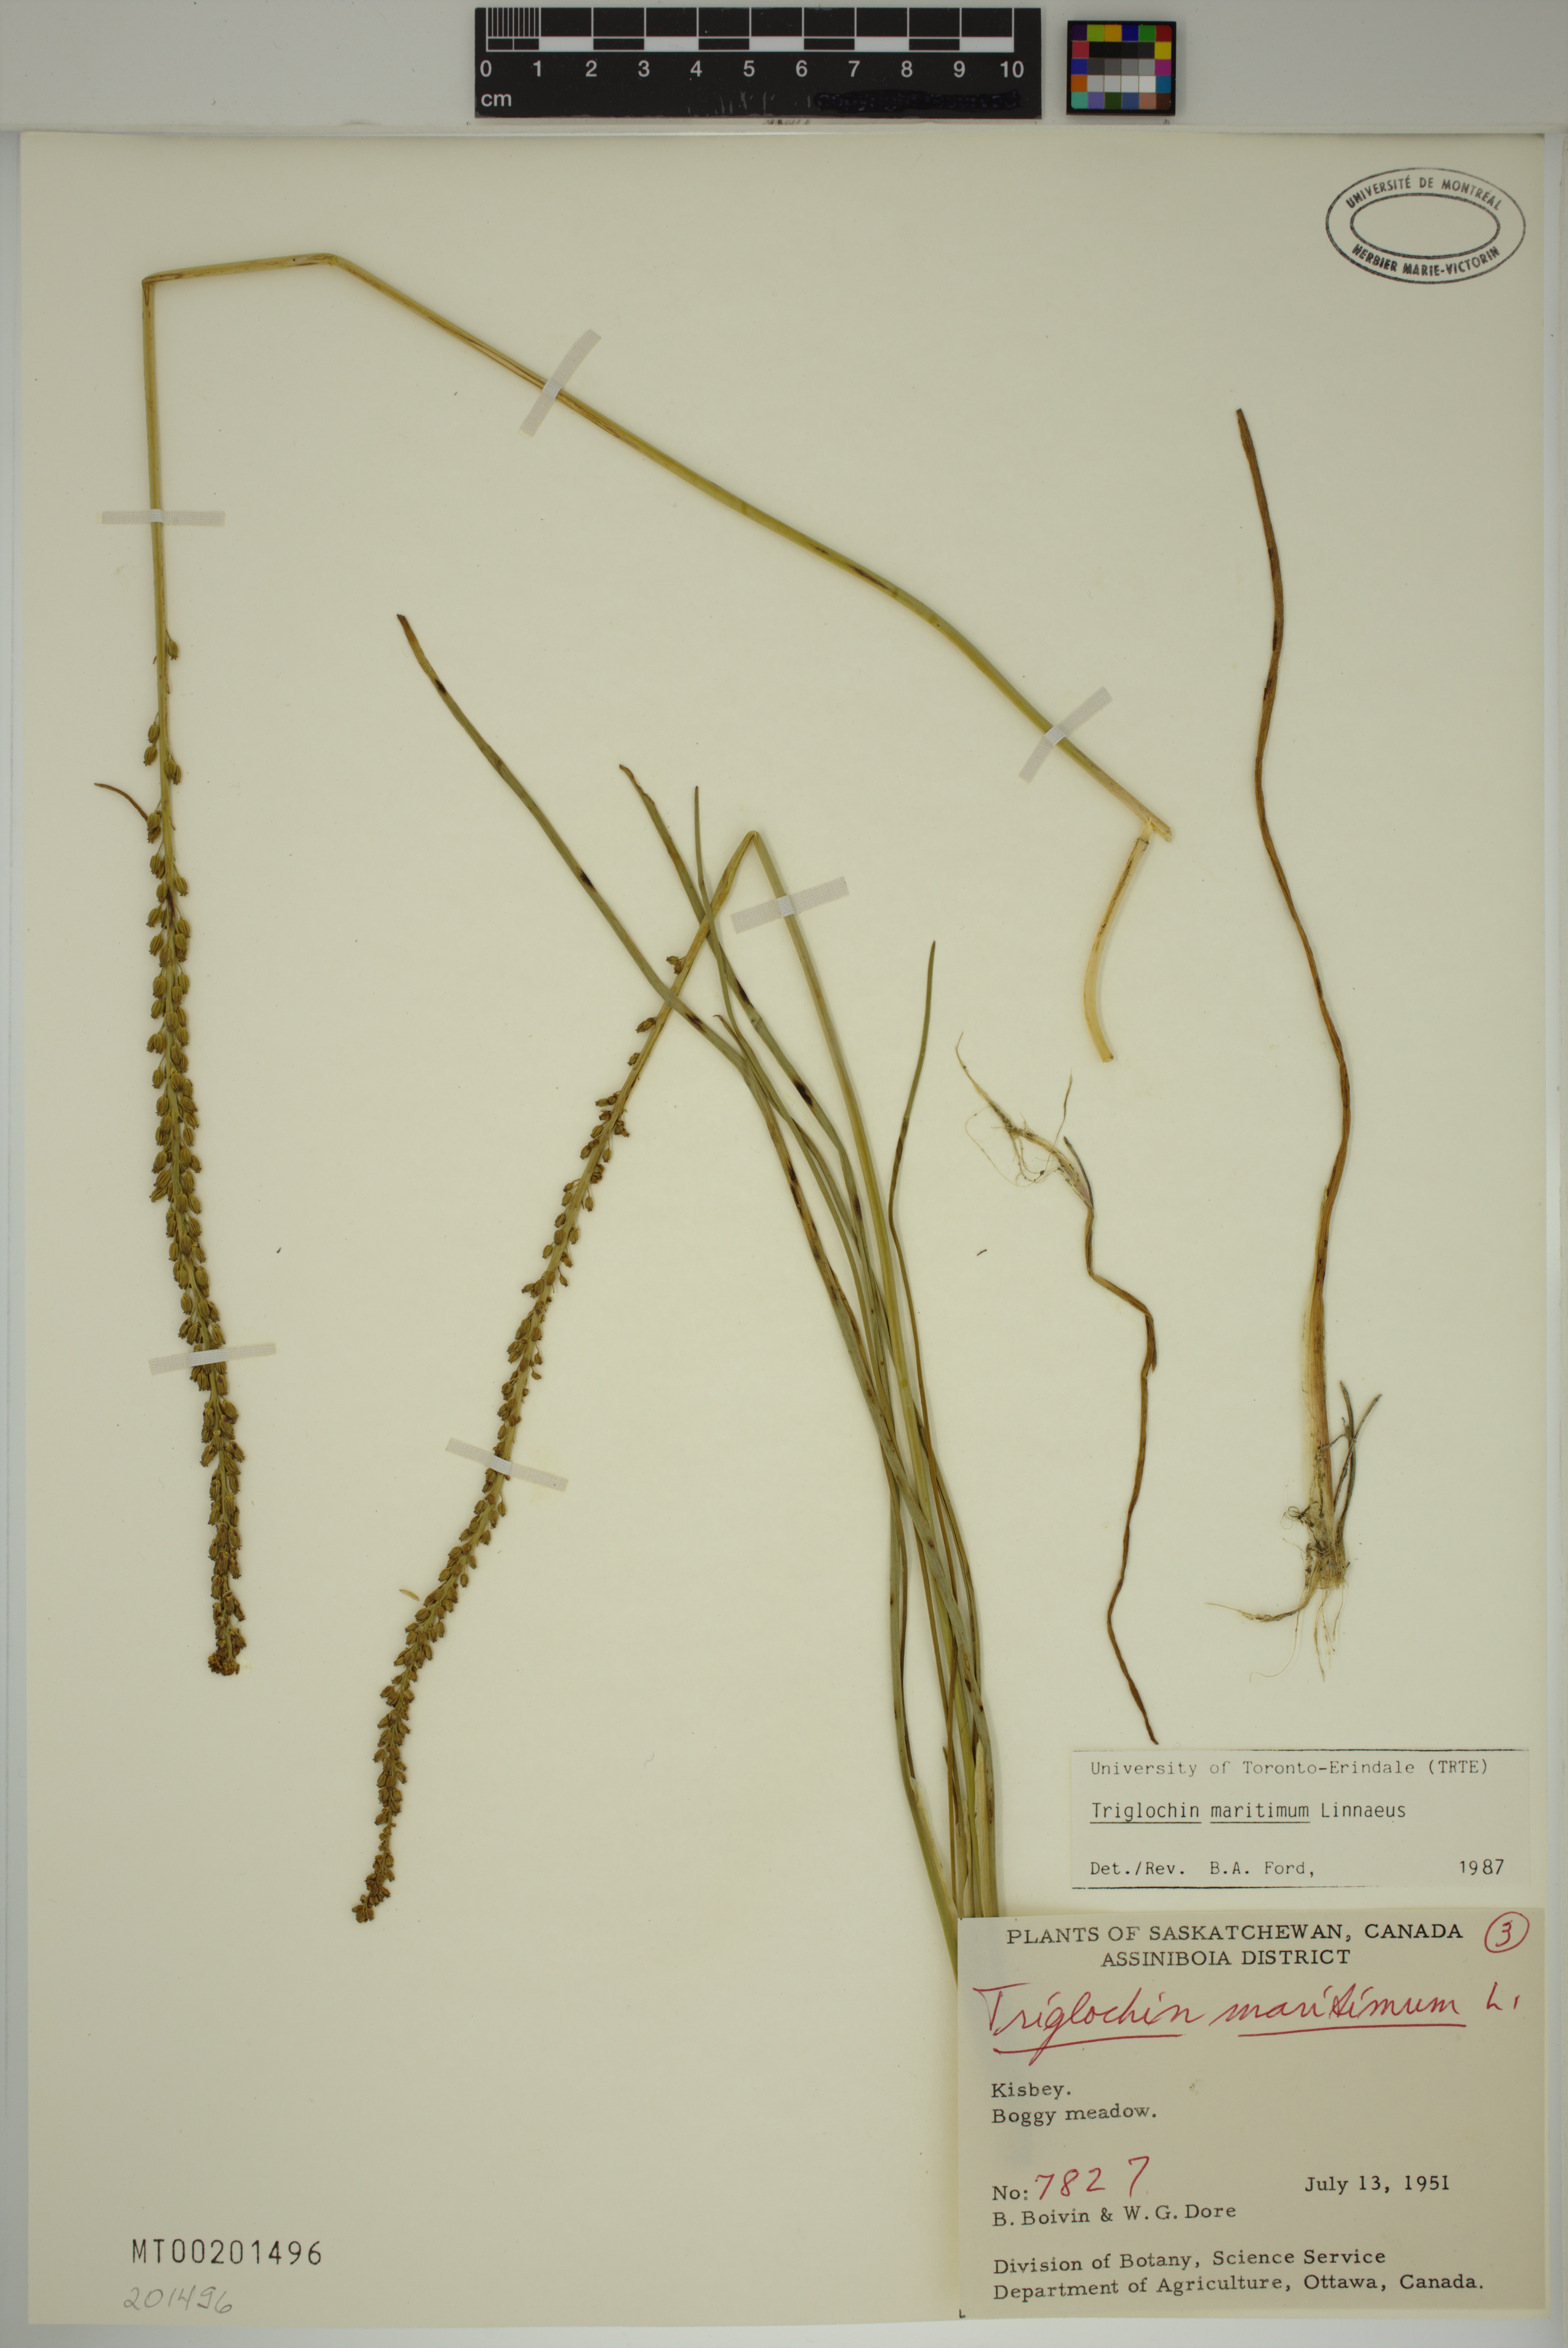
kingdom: Plantae
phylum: Tracheophyta
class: Liliopsida
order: Alismatales
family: Juncaginaceae
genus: Triglochin
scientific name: Triglochin maritima
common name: Sea arrowgrass
